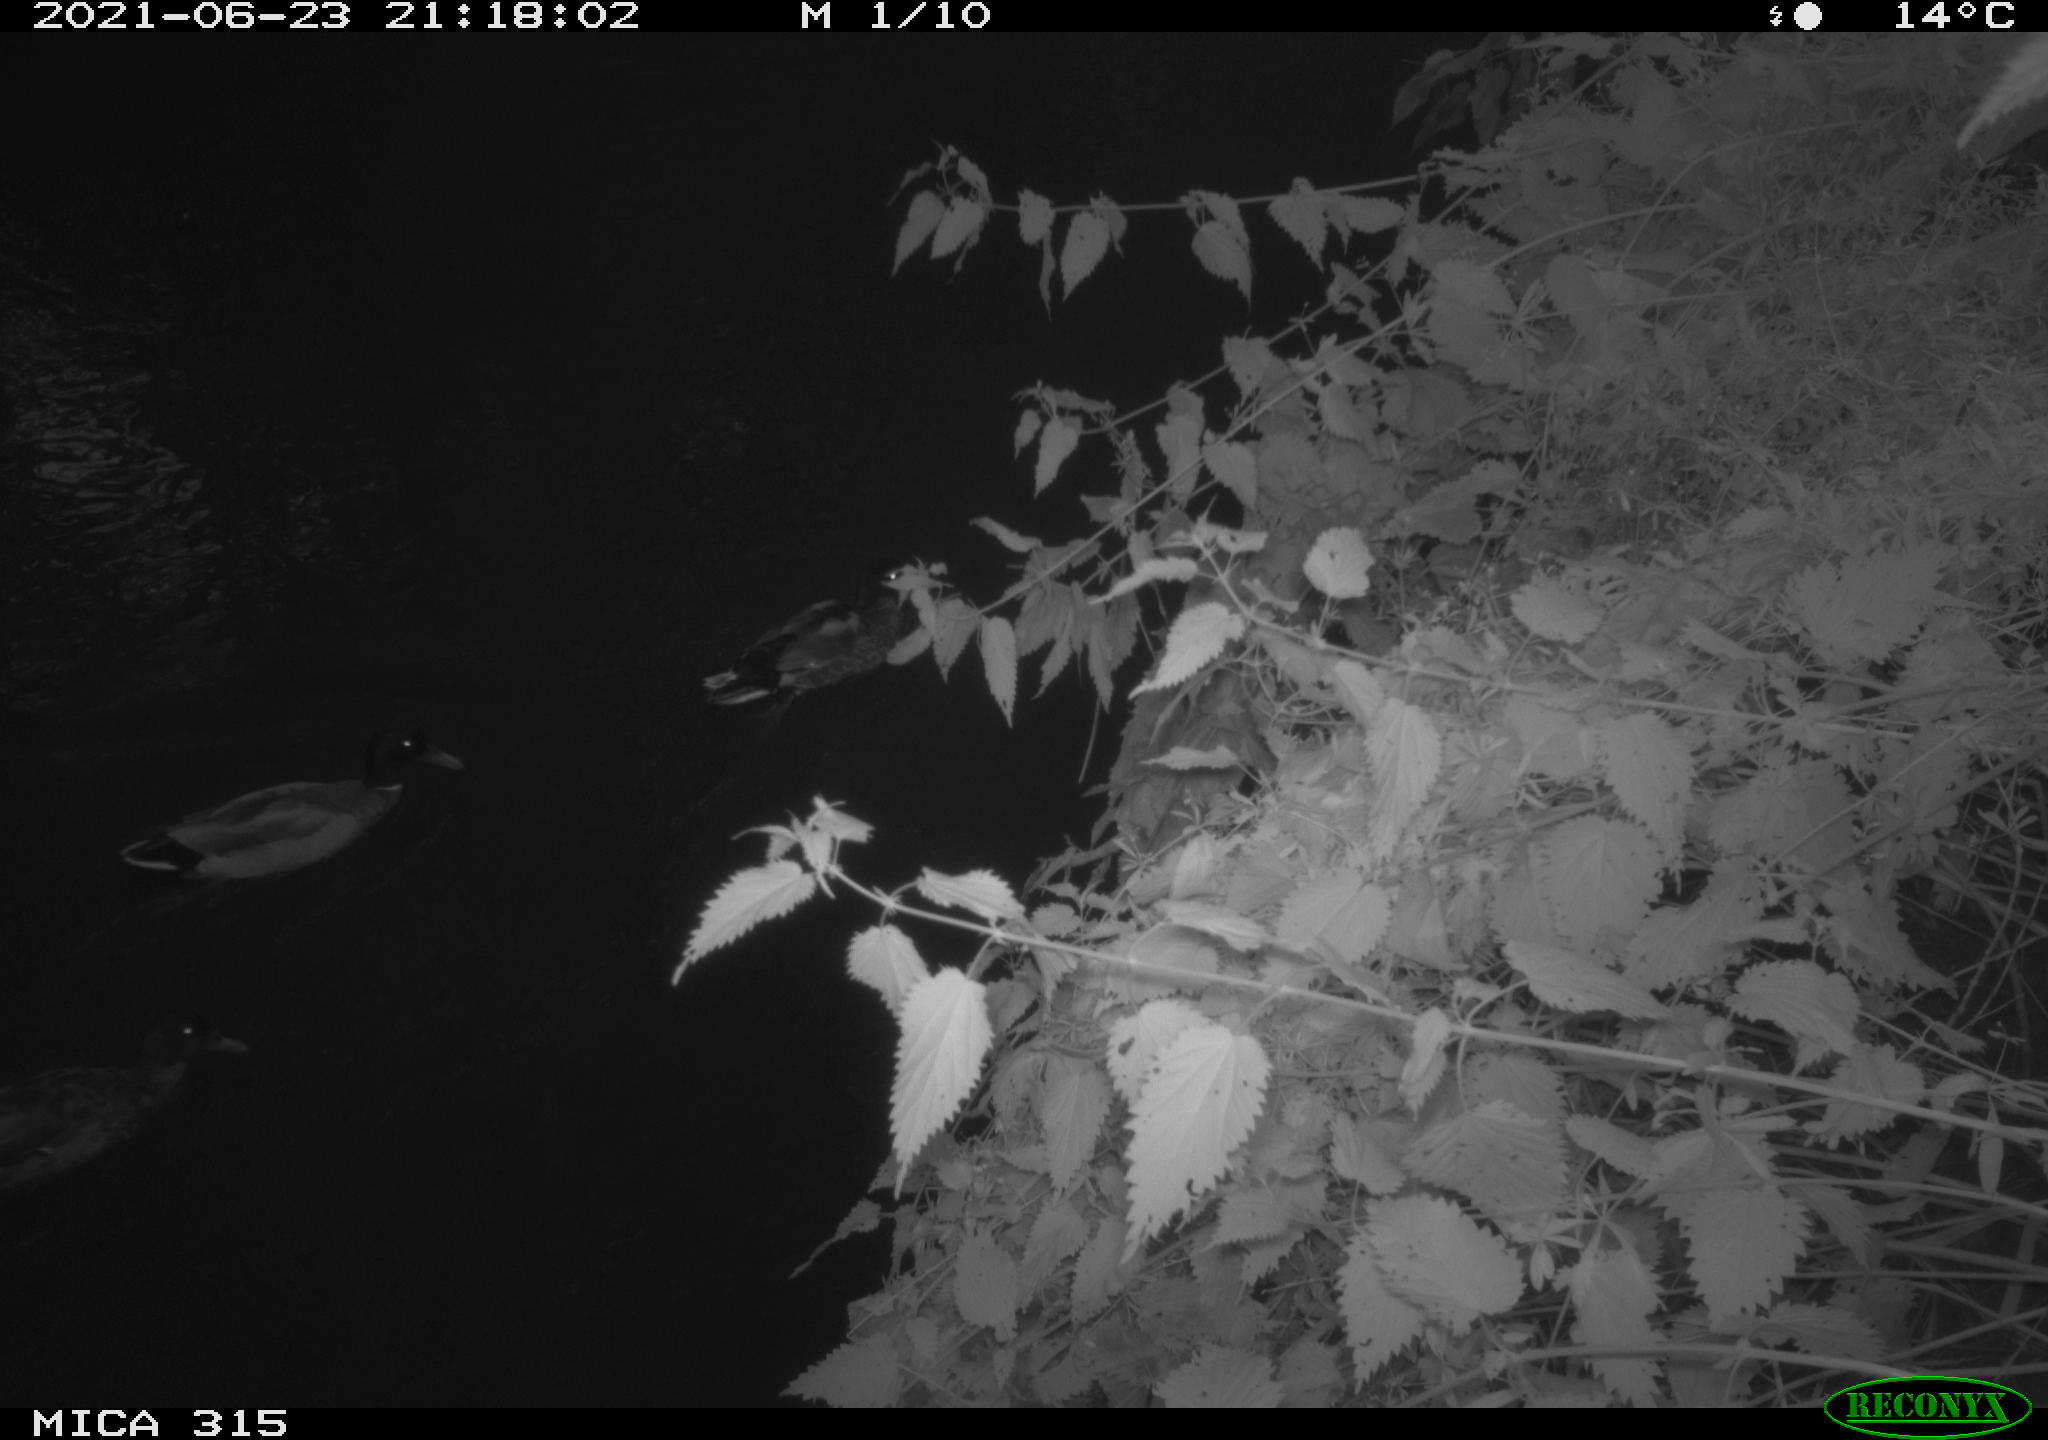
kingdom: Animalia
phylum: Chordata
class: Aves
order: Anseriformes
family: Anatidae
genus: Anas
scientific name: Anas platyrhynchos
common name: Mallard
